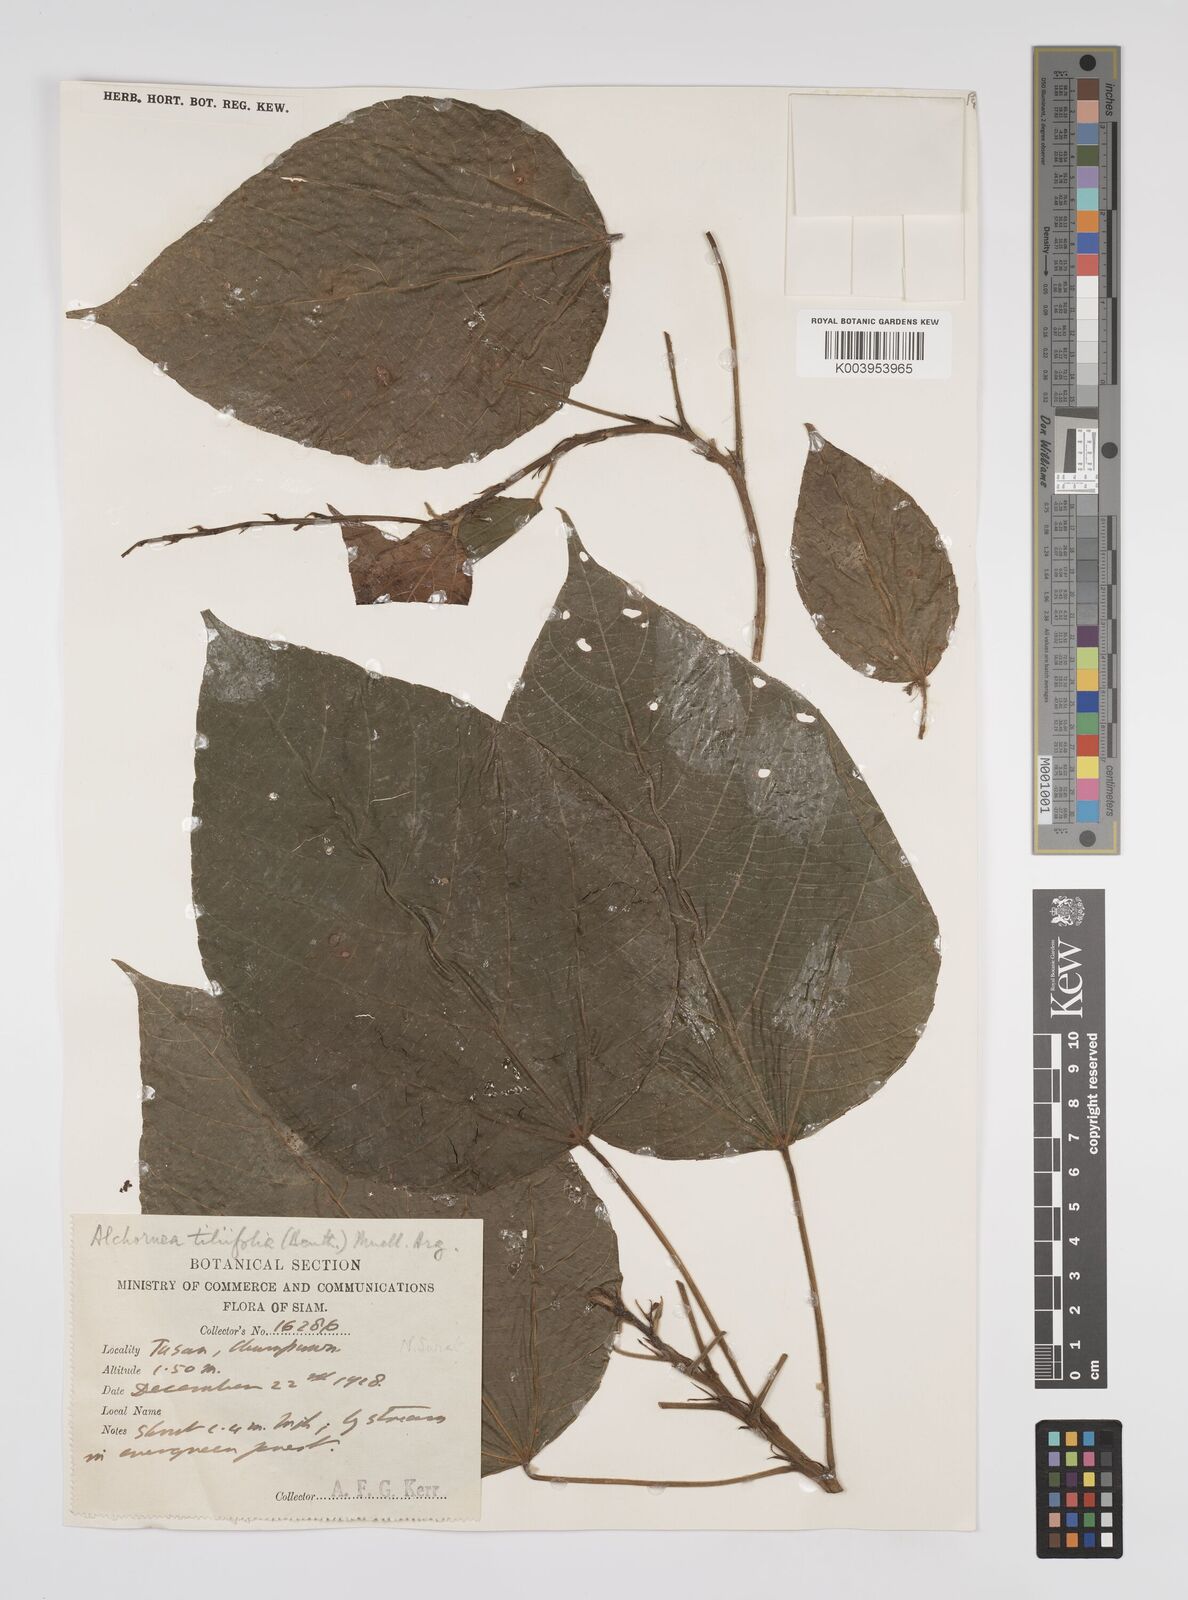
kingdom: Plantae
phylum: Tracheophyta
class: Magnoliopsida
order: Malpighiales
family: Euphorbiaceae
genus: Alchornea
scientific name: Alchornea tiliifolia
